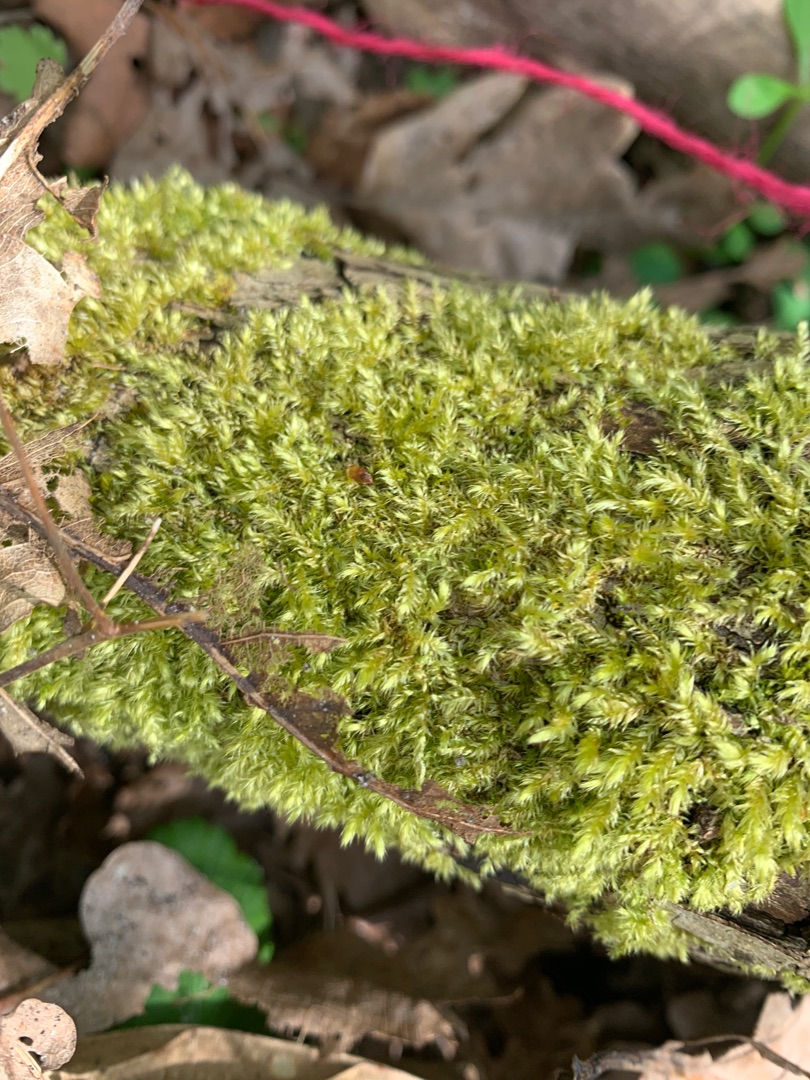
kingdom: Plantae
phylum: Bryophyta
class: Bryopsida
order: Hypnales
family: Brachytheciaceae
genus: Brachythecium
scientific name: Brachythecium rutabulum
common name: Almindelig kortkapsel
